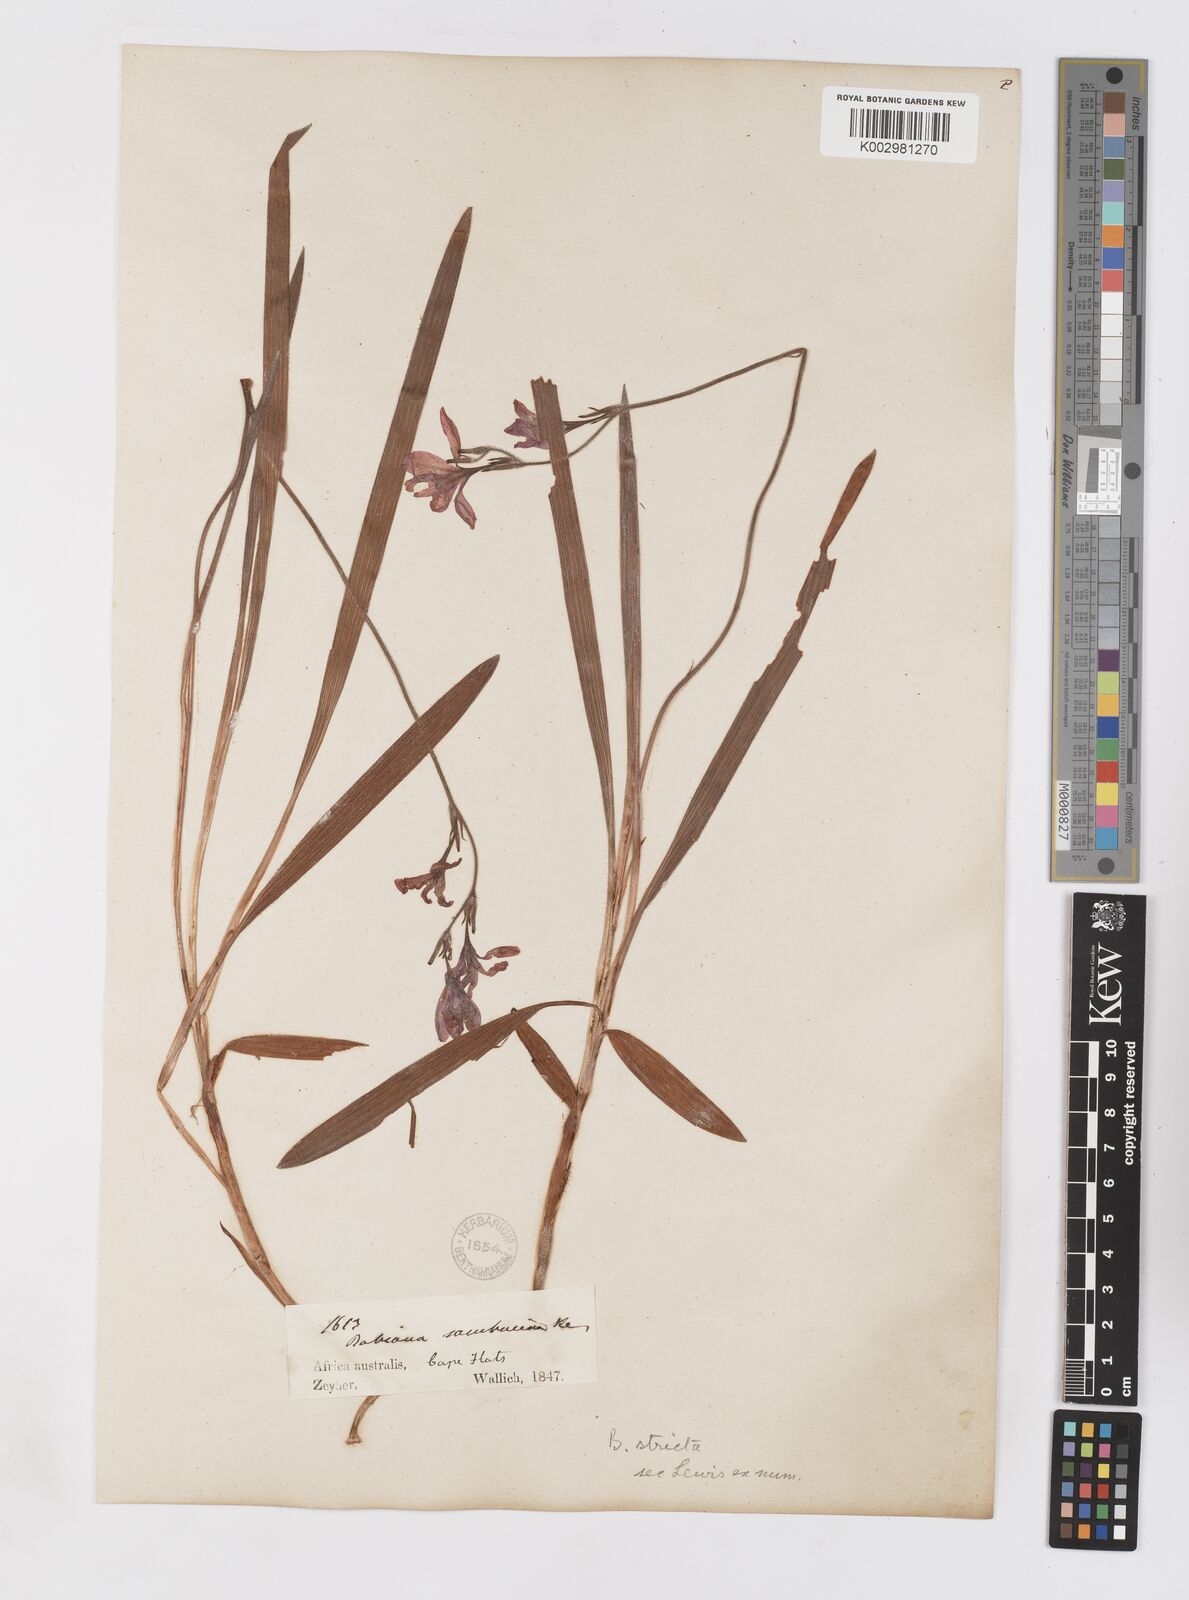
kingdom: Plantae
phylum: Tracheophyta
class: Liliopsida
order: Asparagales
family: Iridaceae
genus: Babiana
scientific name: Babiana regia
